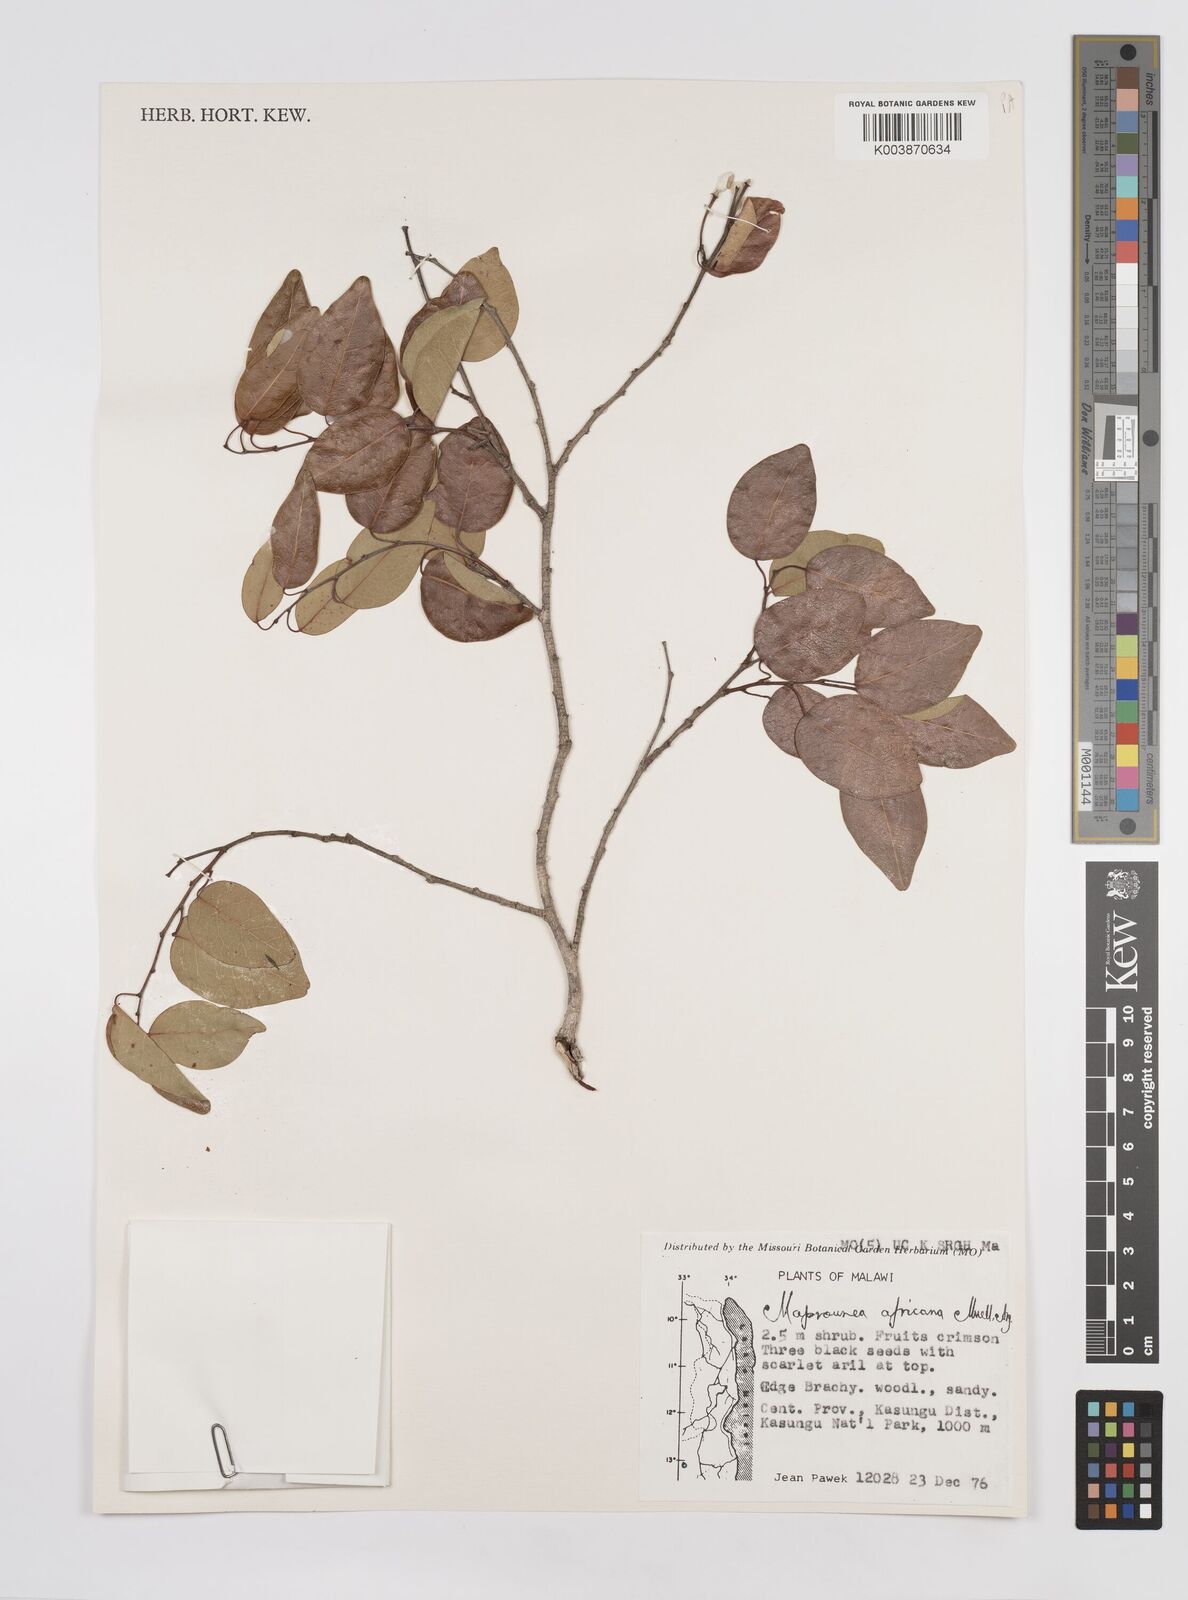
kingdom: Plantae
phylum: Tracheophyta
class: Magnoliopsida
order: Malpighiales
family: Euphorbiaceae
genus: Maprounea
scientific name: Maprounea africana
